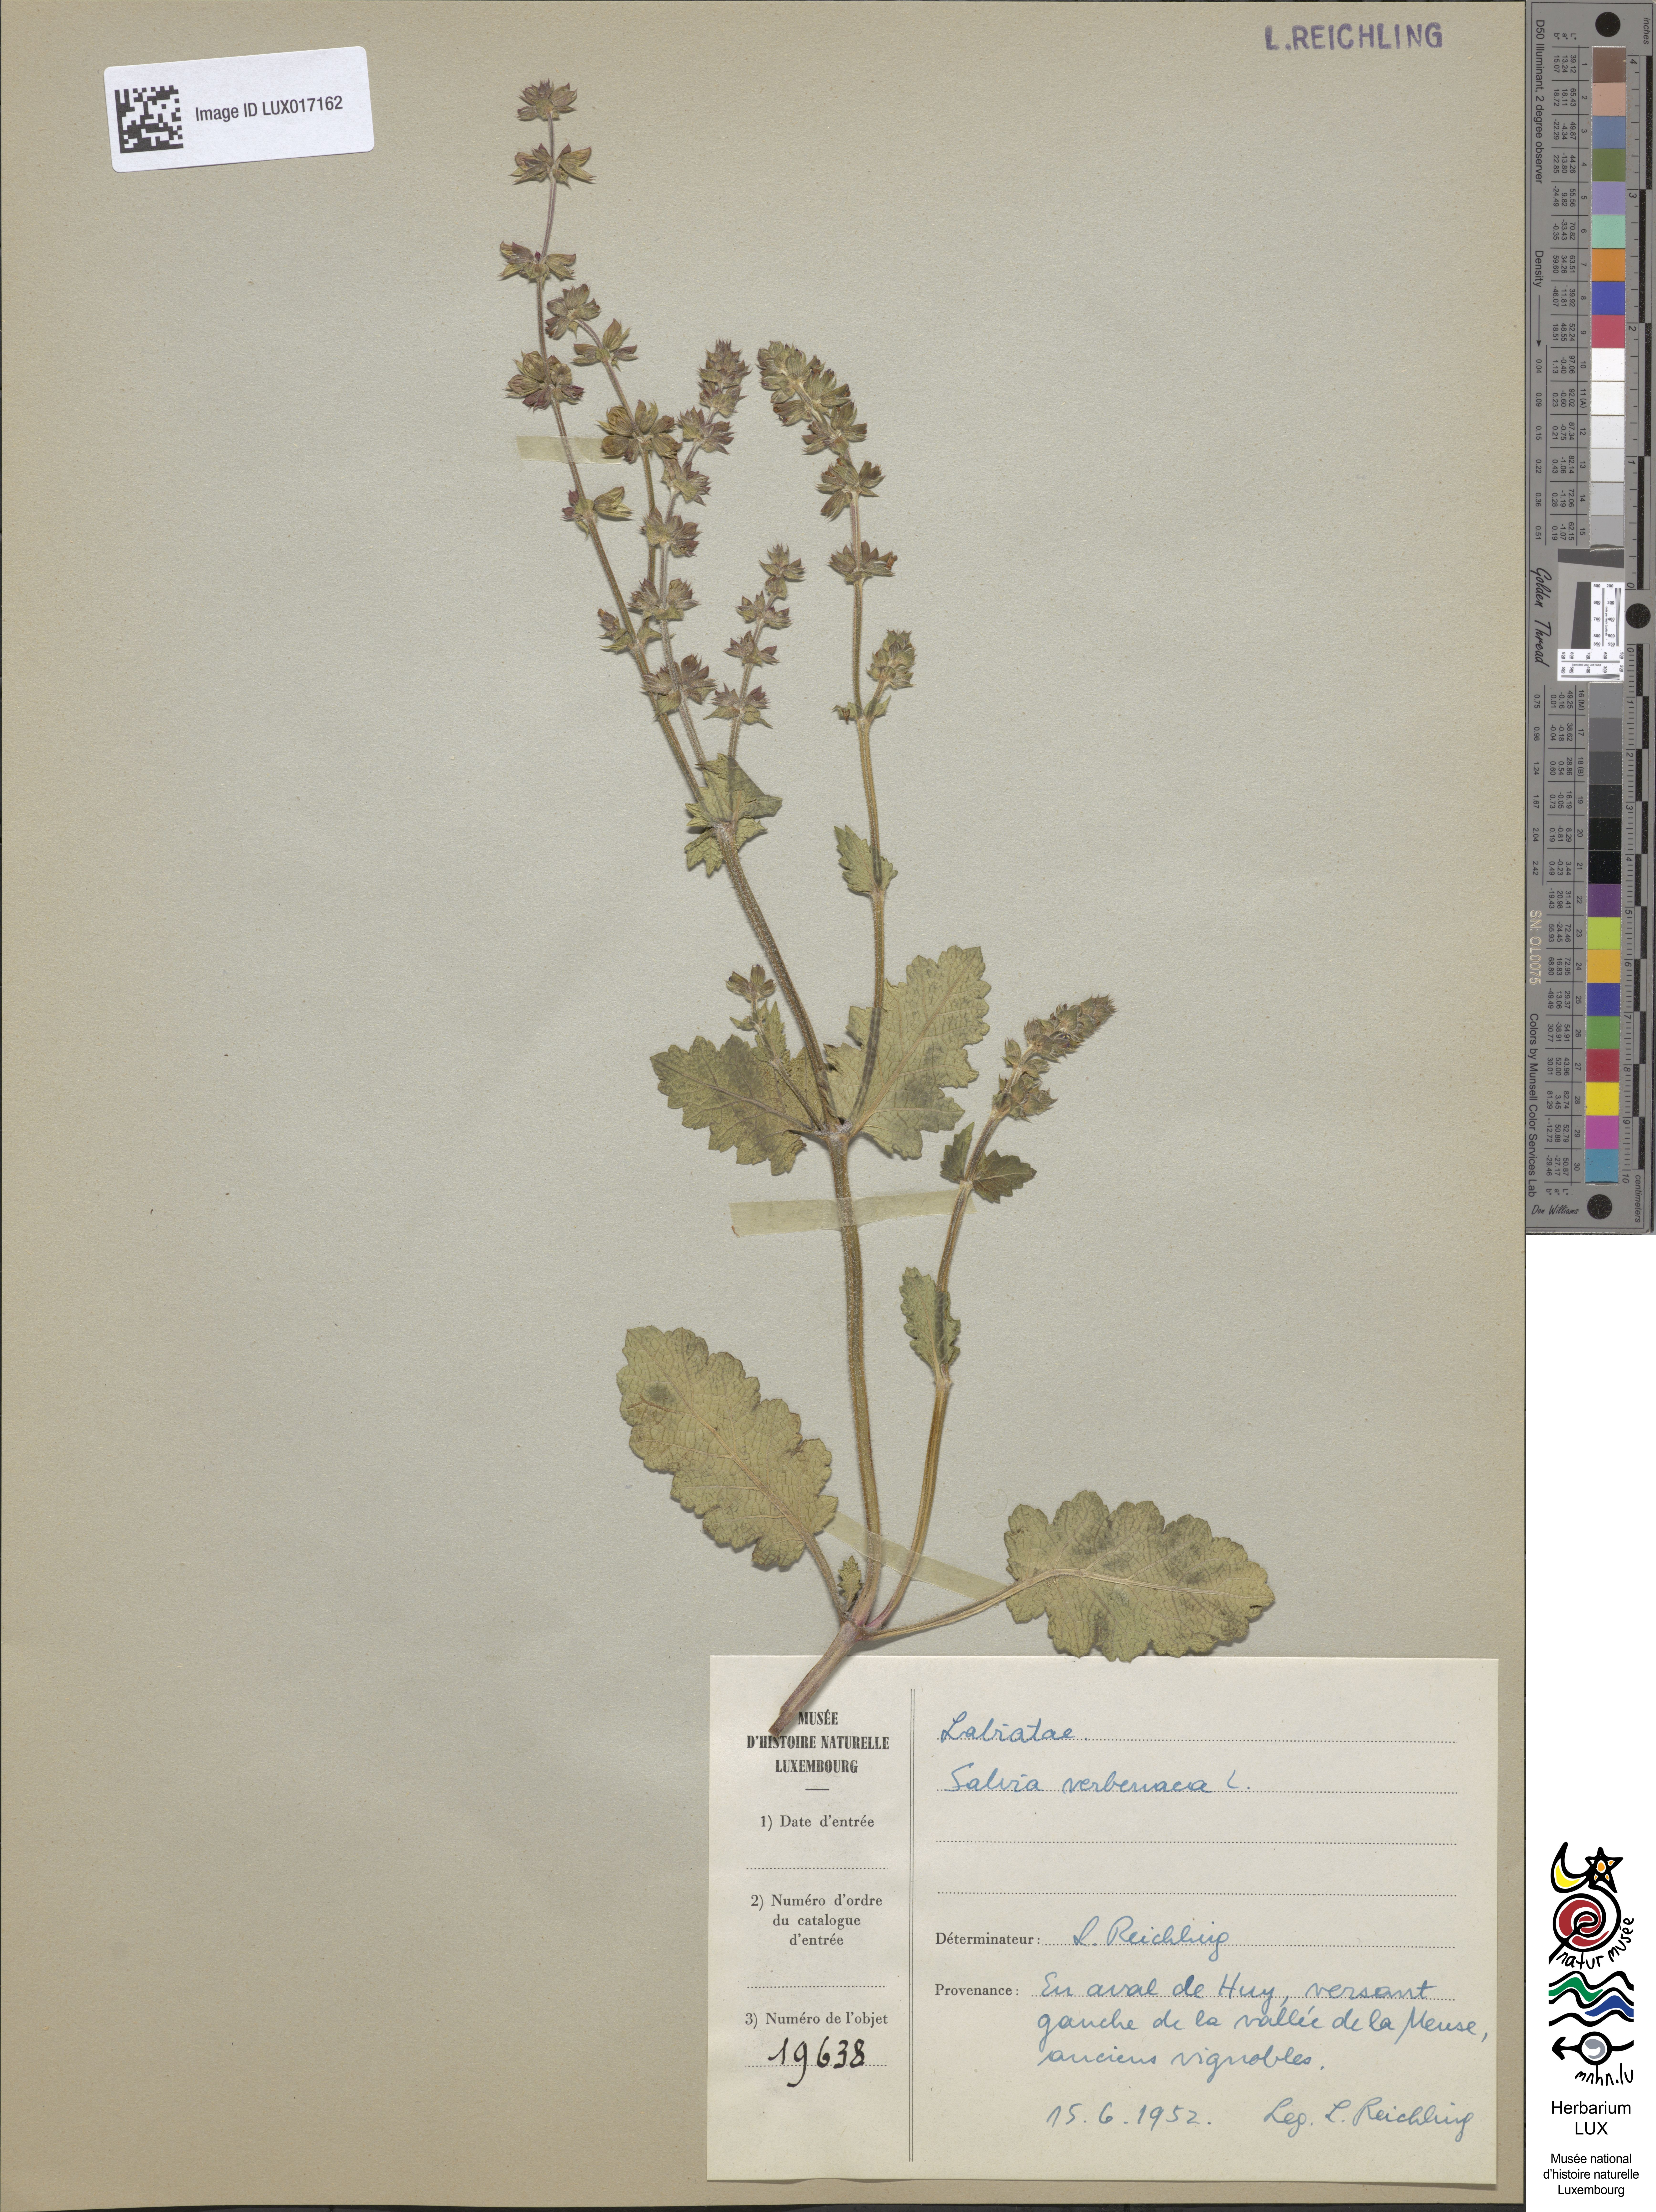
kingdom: Plantae
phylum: Tracheophyta
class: Magnoliopsida
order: Lamiales
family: Lamiaceae
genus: Salvia
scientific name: Salvia verbenaca
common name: Wild clary
